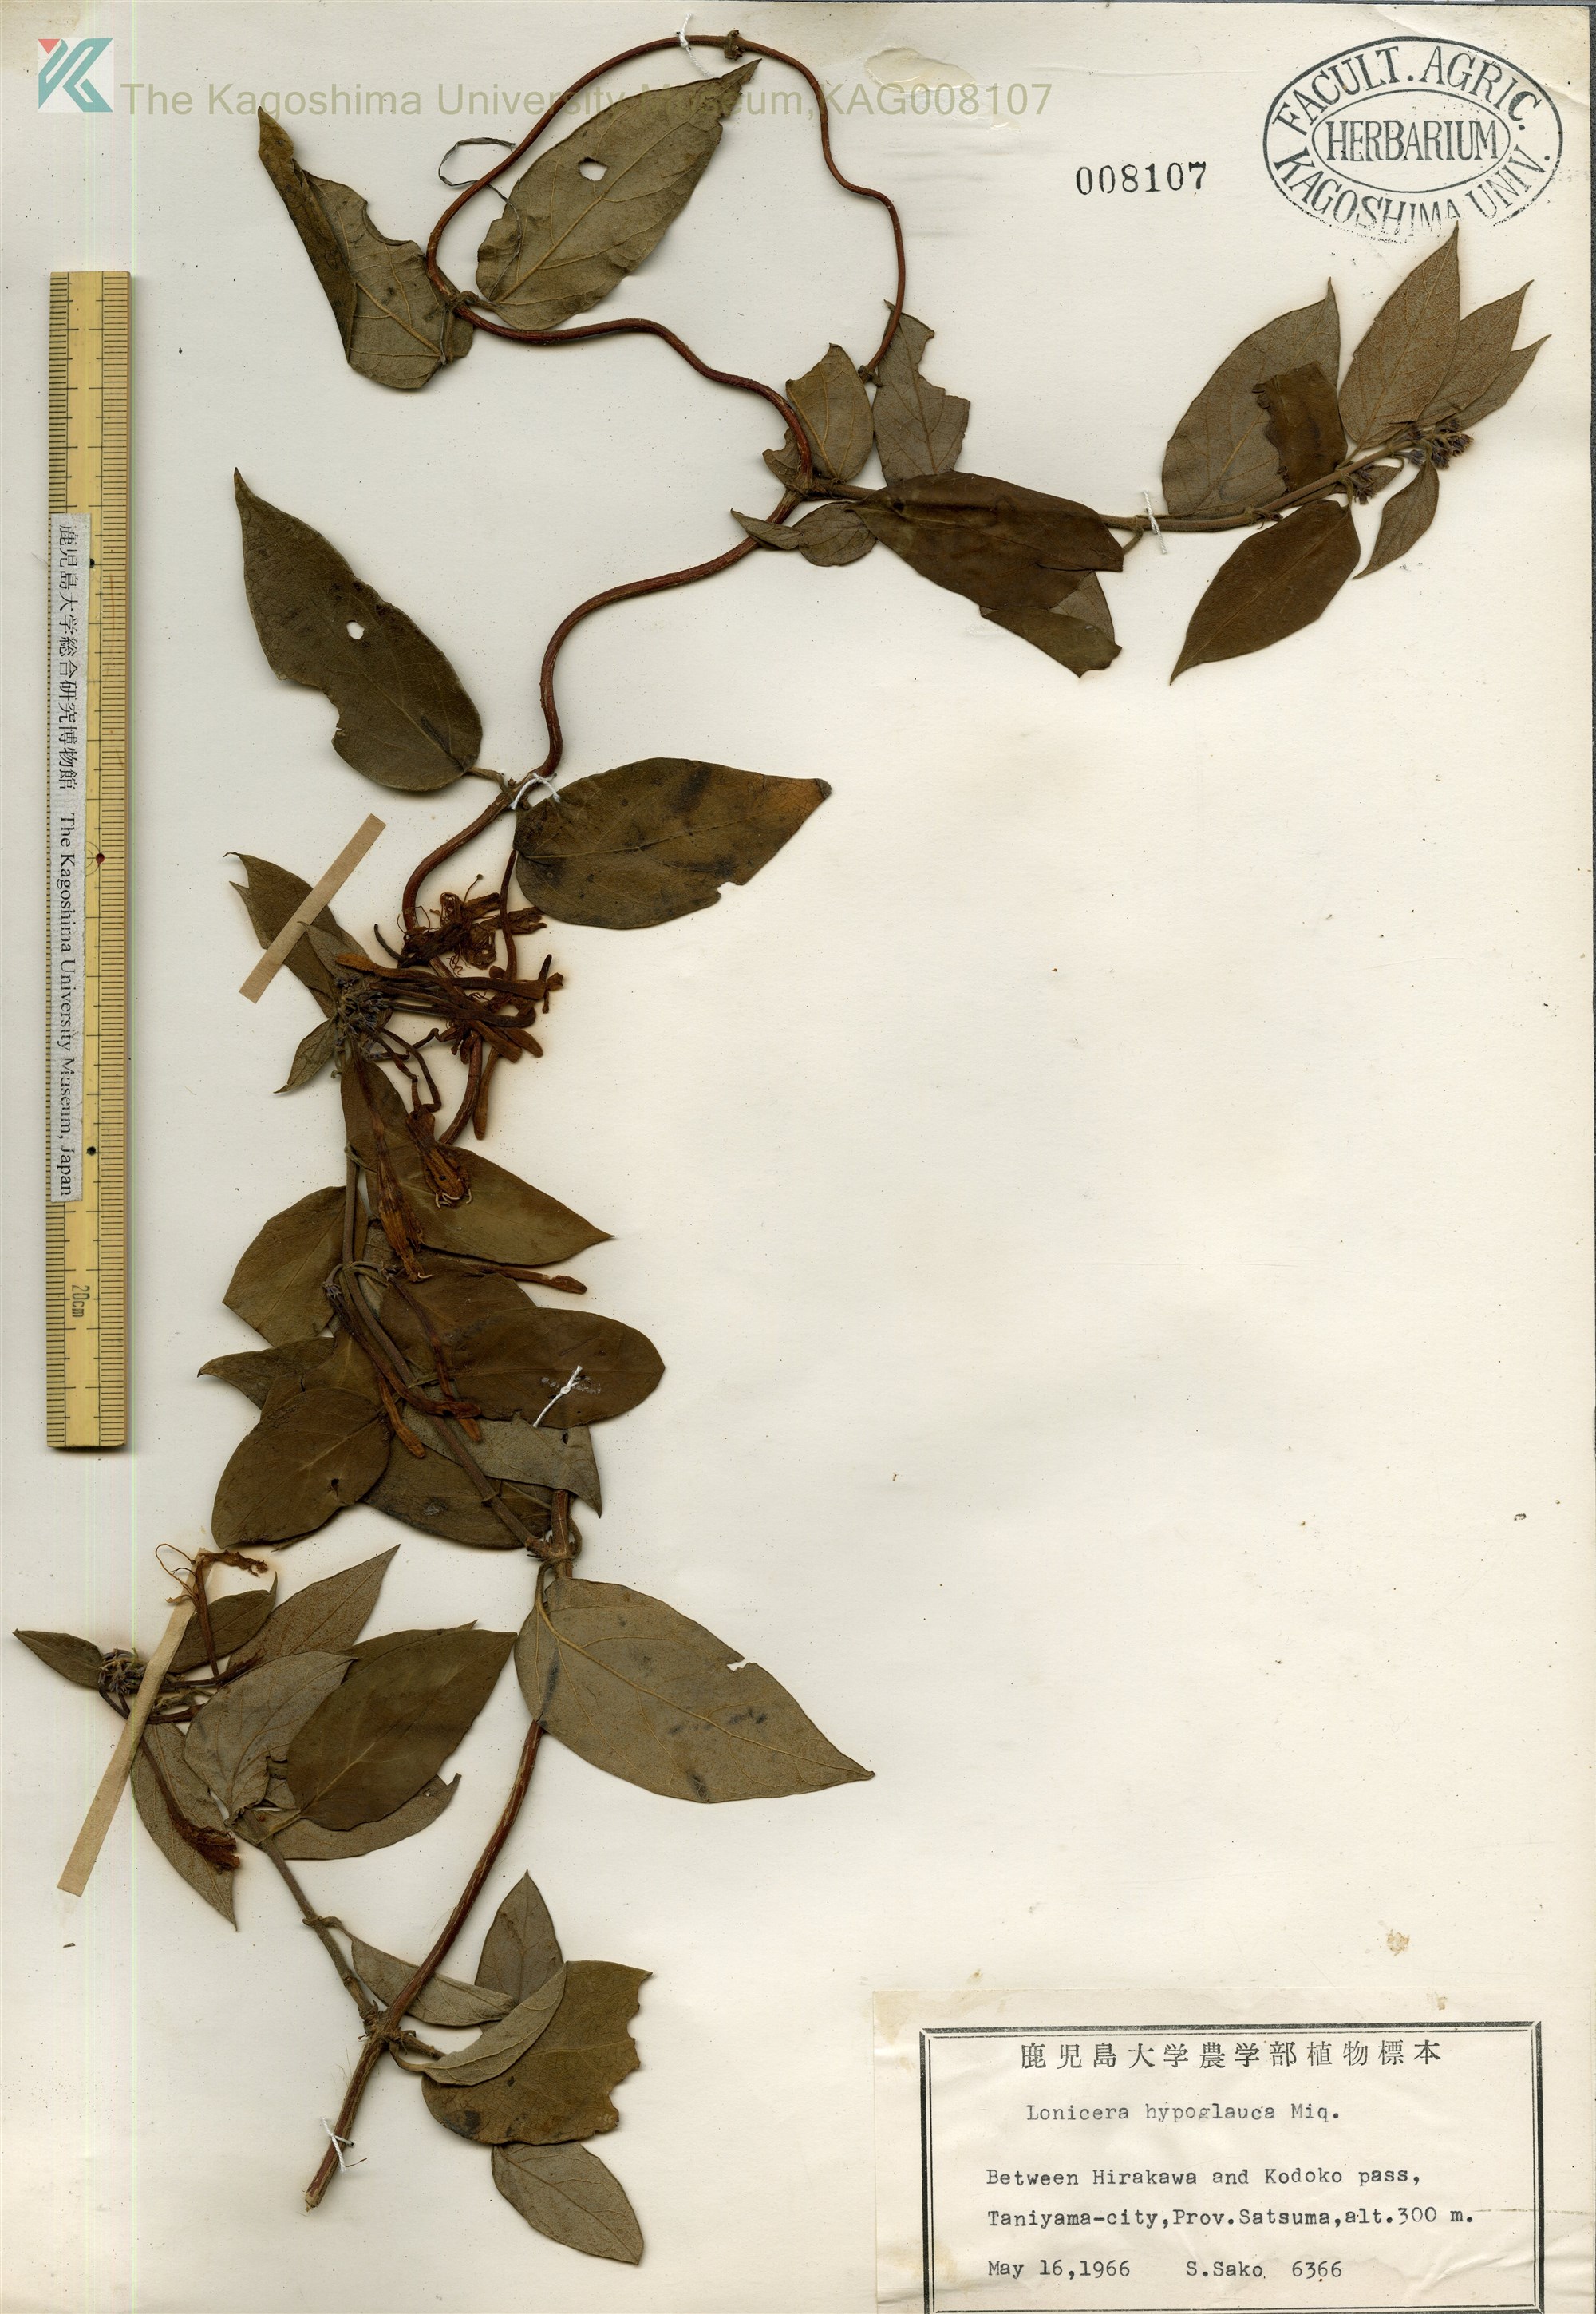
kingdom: Plantae
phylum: Tracheophyta
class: Magnoliopsida
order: Dipsacales
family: Caprifoliaceae
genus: Lonicera
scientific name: Lonicera hypoglauca
